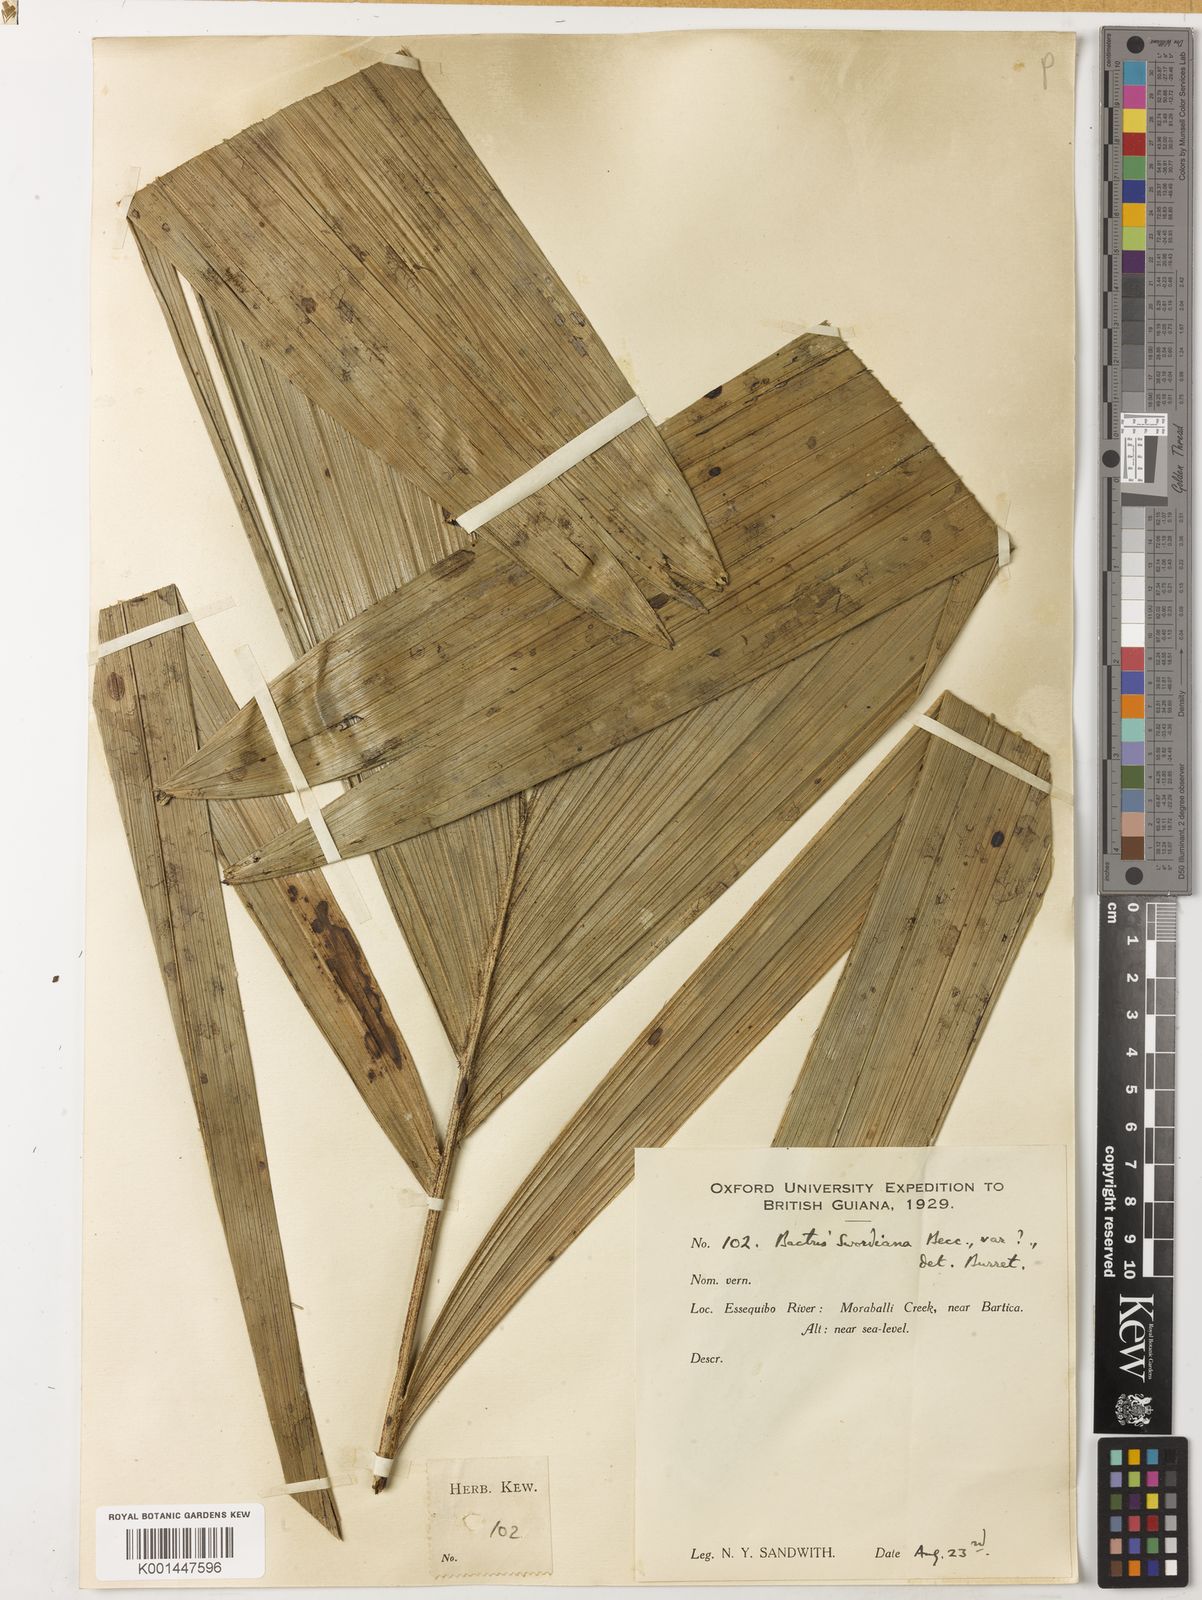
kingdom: Plantae
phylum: Tracheophyta
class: Liliopsida
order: Arecales
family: Arecaceae
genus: Bactris
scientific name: Bactris setulosa
